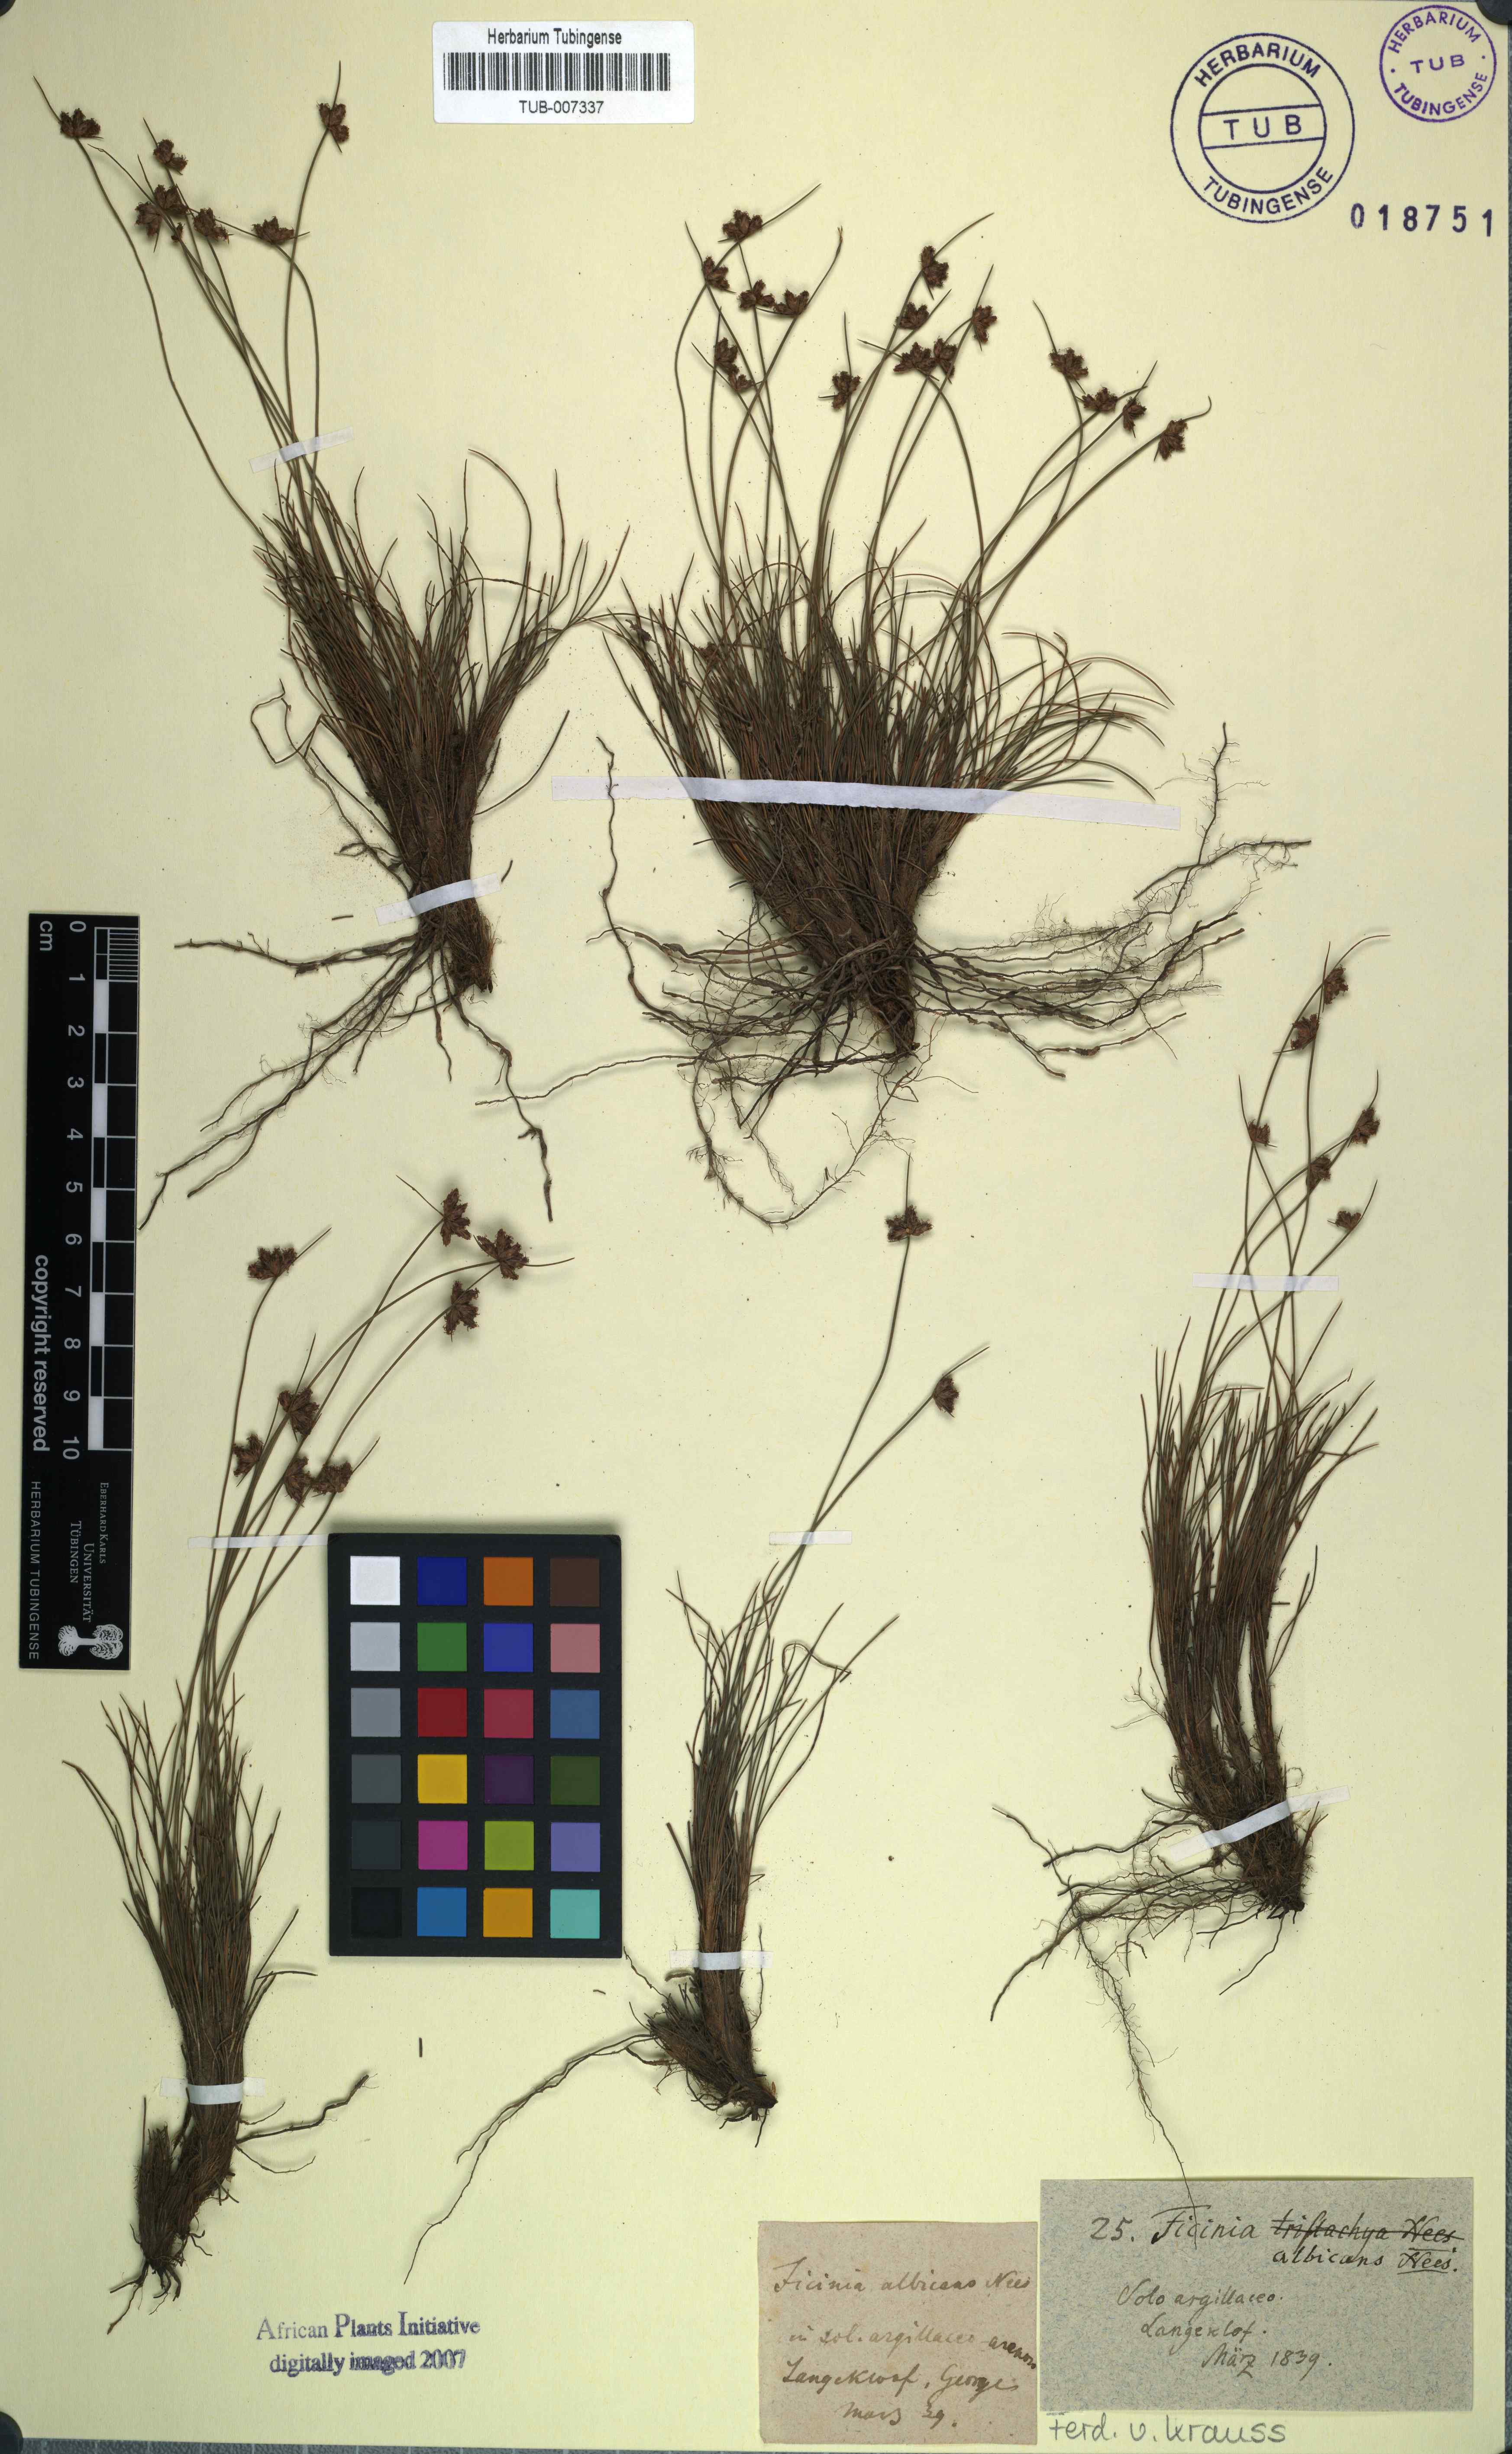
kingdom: Plantae
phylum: Tracheophyta
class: Liliopsida
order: Poales
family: Cyperaceae
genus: Ficinia
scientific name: Ficinia albicans
